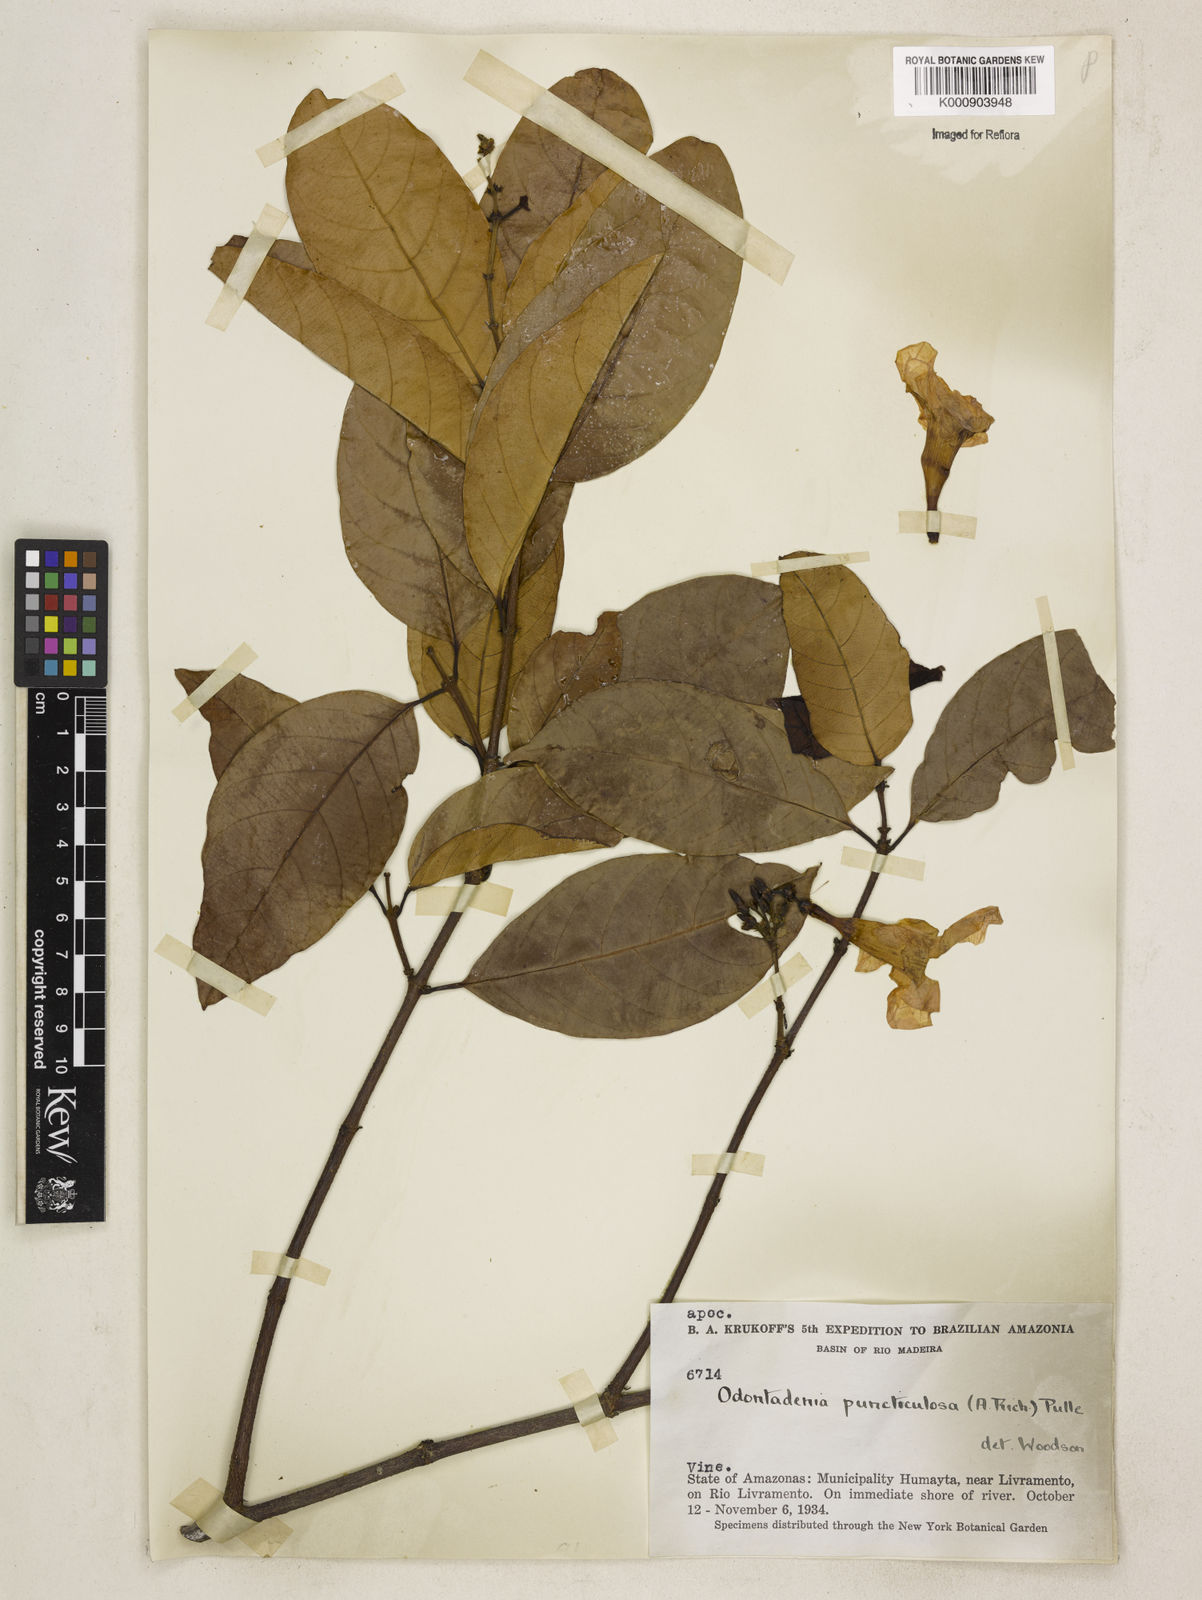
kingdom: Plantae
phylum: Tracheophyta
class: Magnoliopsida
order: Gentianales
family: Apocynaceae
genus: Odontadenia
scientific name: Odontadenia puncticulosa
